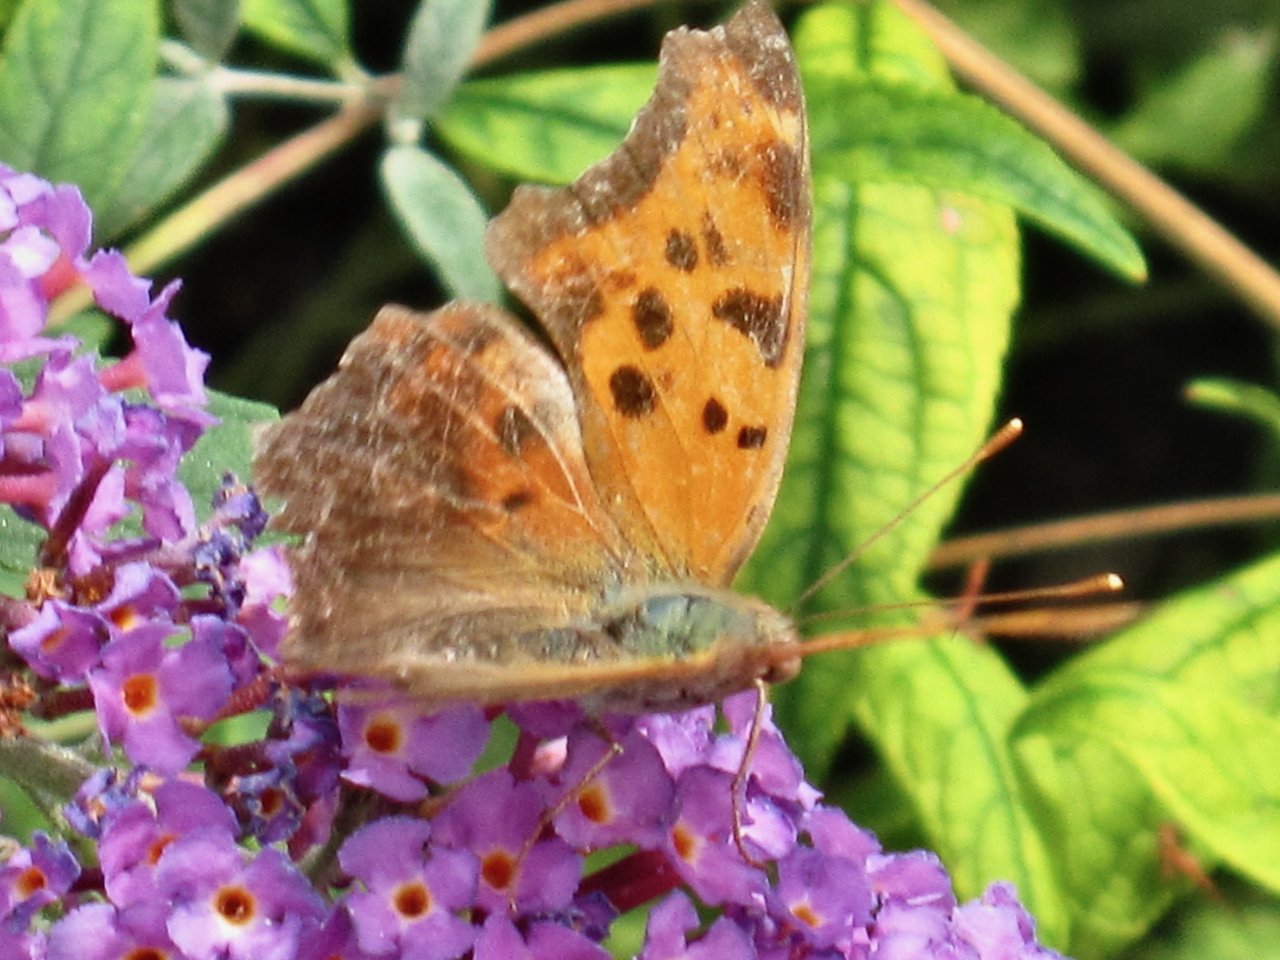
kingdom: Animalia
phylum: Arthropoda
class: Insecta
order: Lepidoptera
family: Nymphalidae
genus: Polygonia
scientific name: Polygonia interrogationis
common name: Question Mark
